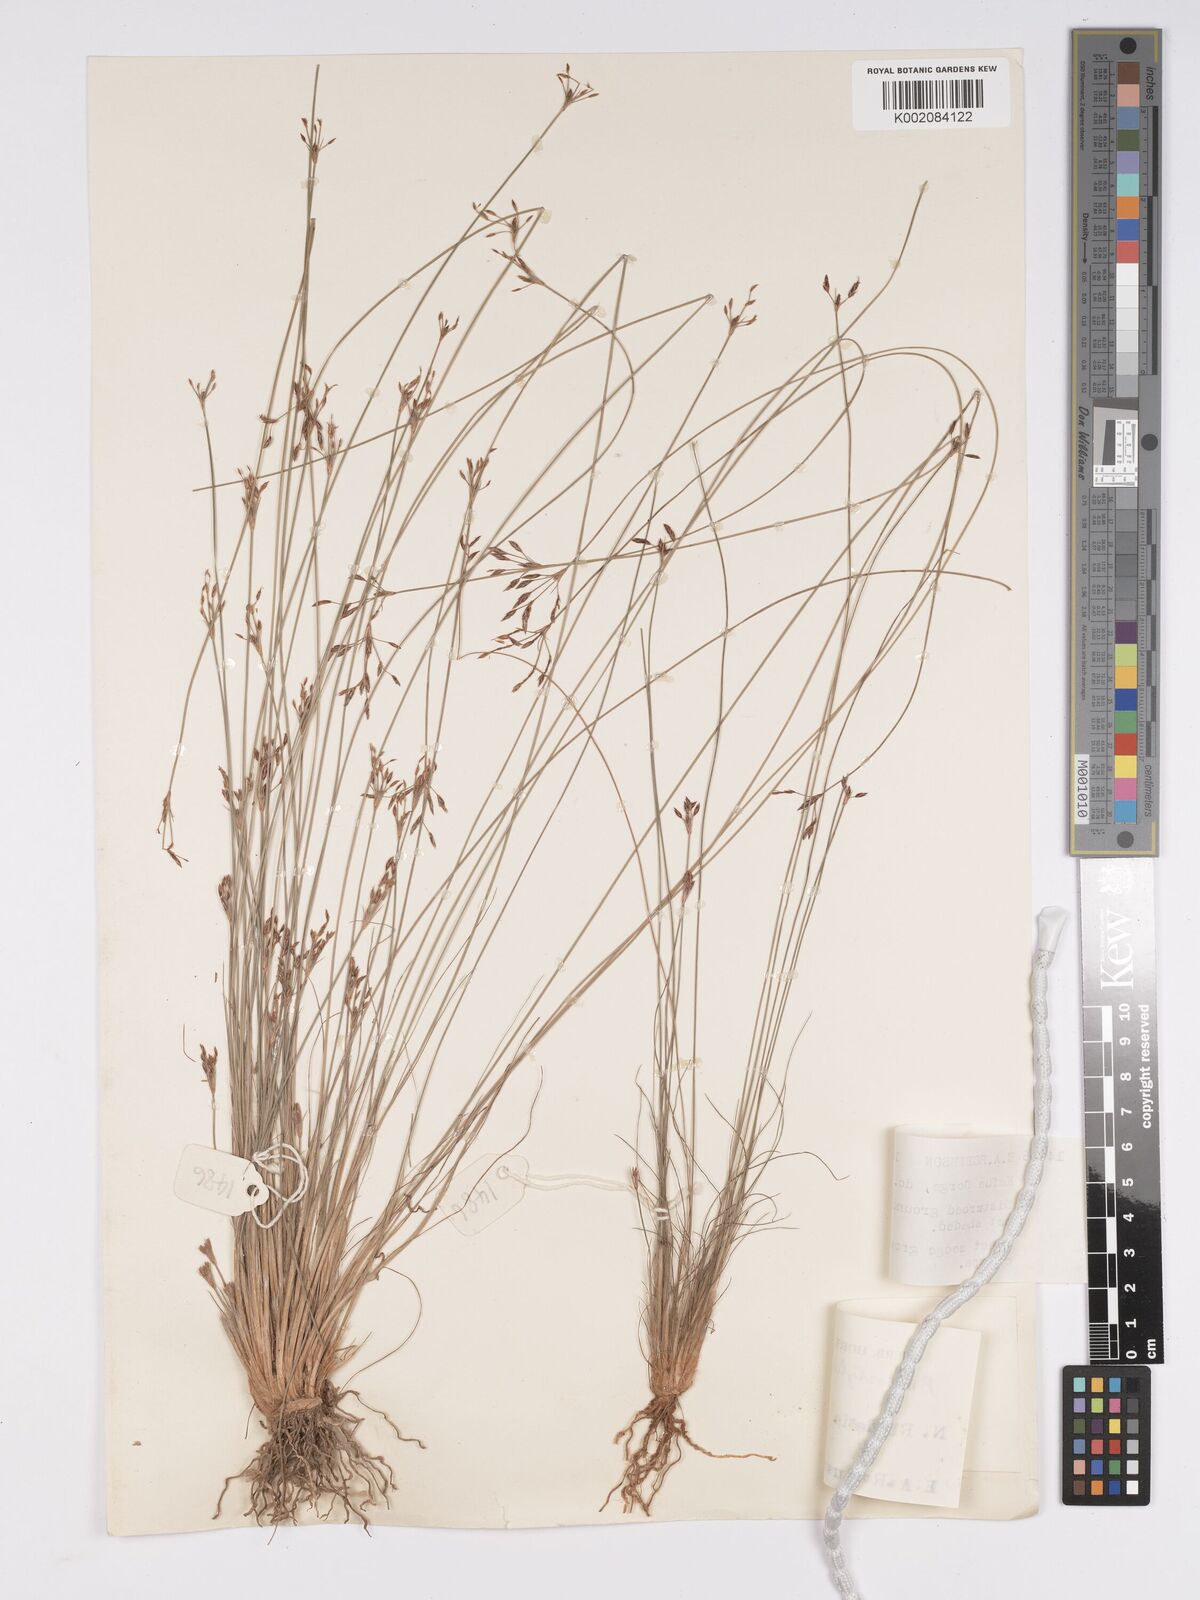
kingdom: Plantae
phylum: Tracheophyta
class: Liliopsida
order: Poales
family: Cyperaceae
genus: Bulbostylis
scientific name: Bulbostylis
